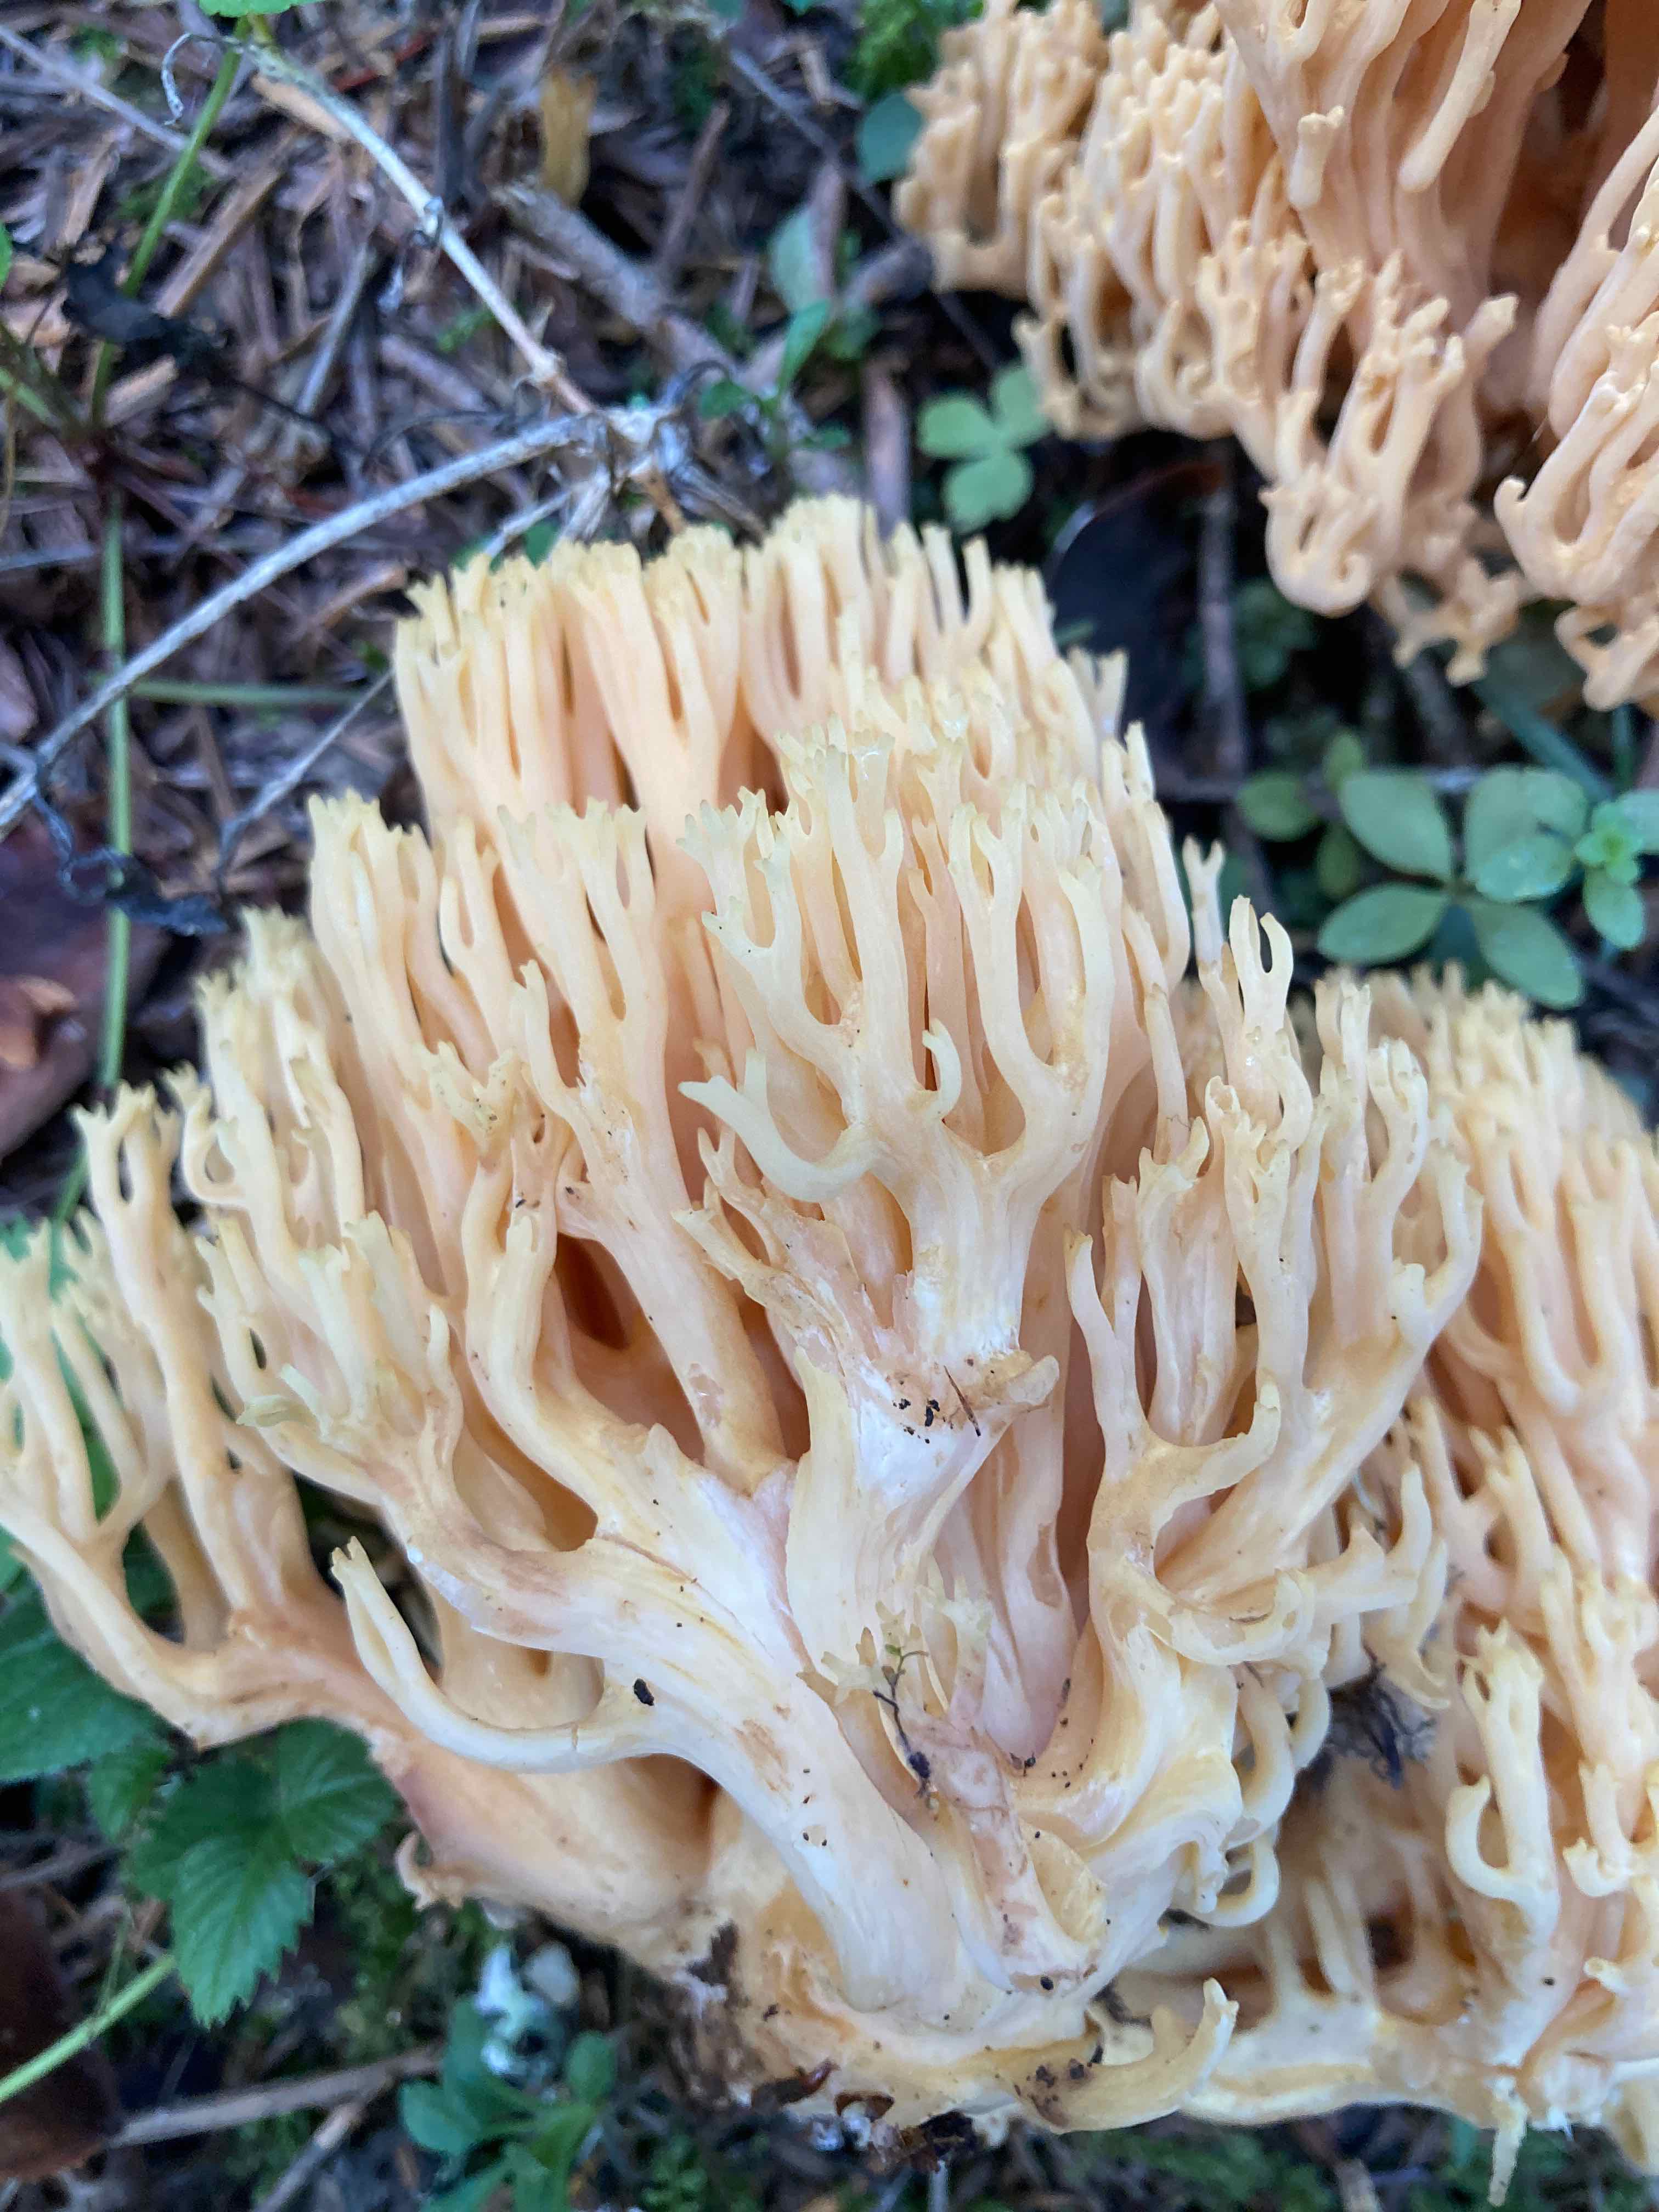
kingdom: Fungi
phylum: Basidiomycota
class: Agaricomycetes
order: Gomphales
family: Gomphaceae
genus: Ramaria
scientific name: Ramaria flavescens
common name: stor koralsvamp
